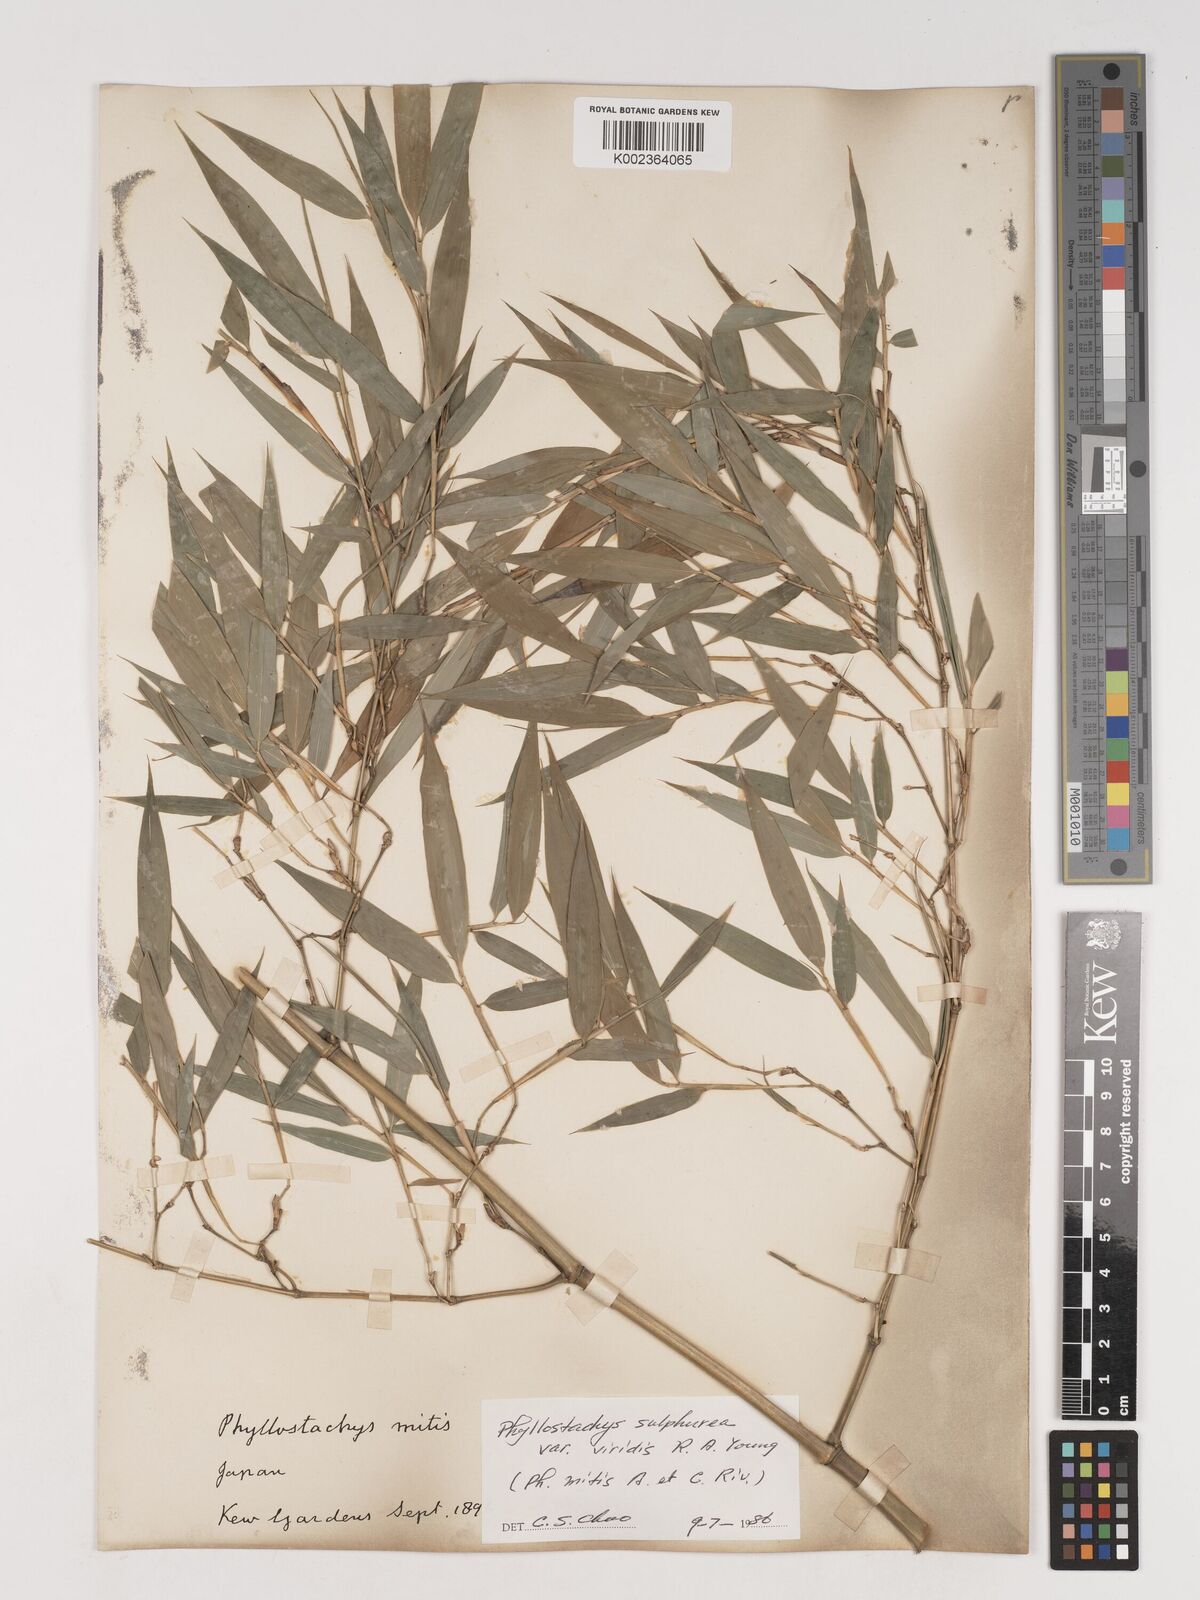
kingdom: Plantae
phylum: Tracheophyta
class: Liliopsida
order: Poales
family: Poaceae
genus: Phyllostachys
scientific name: Phyllostachys sulphurea
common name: Sulphur bamboo
